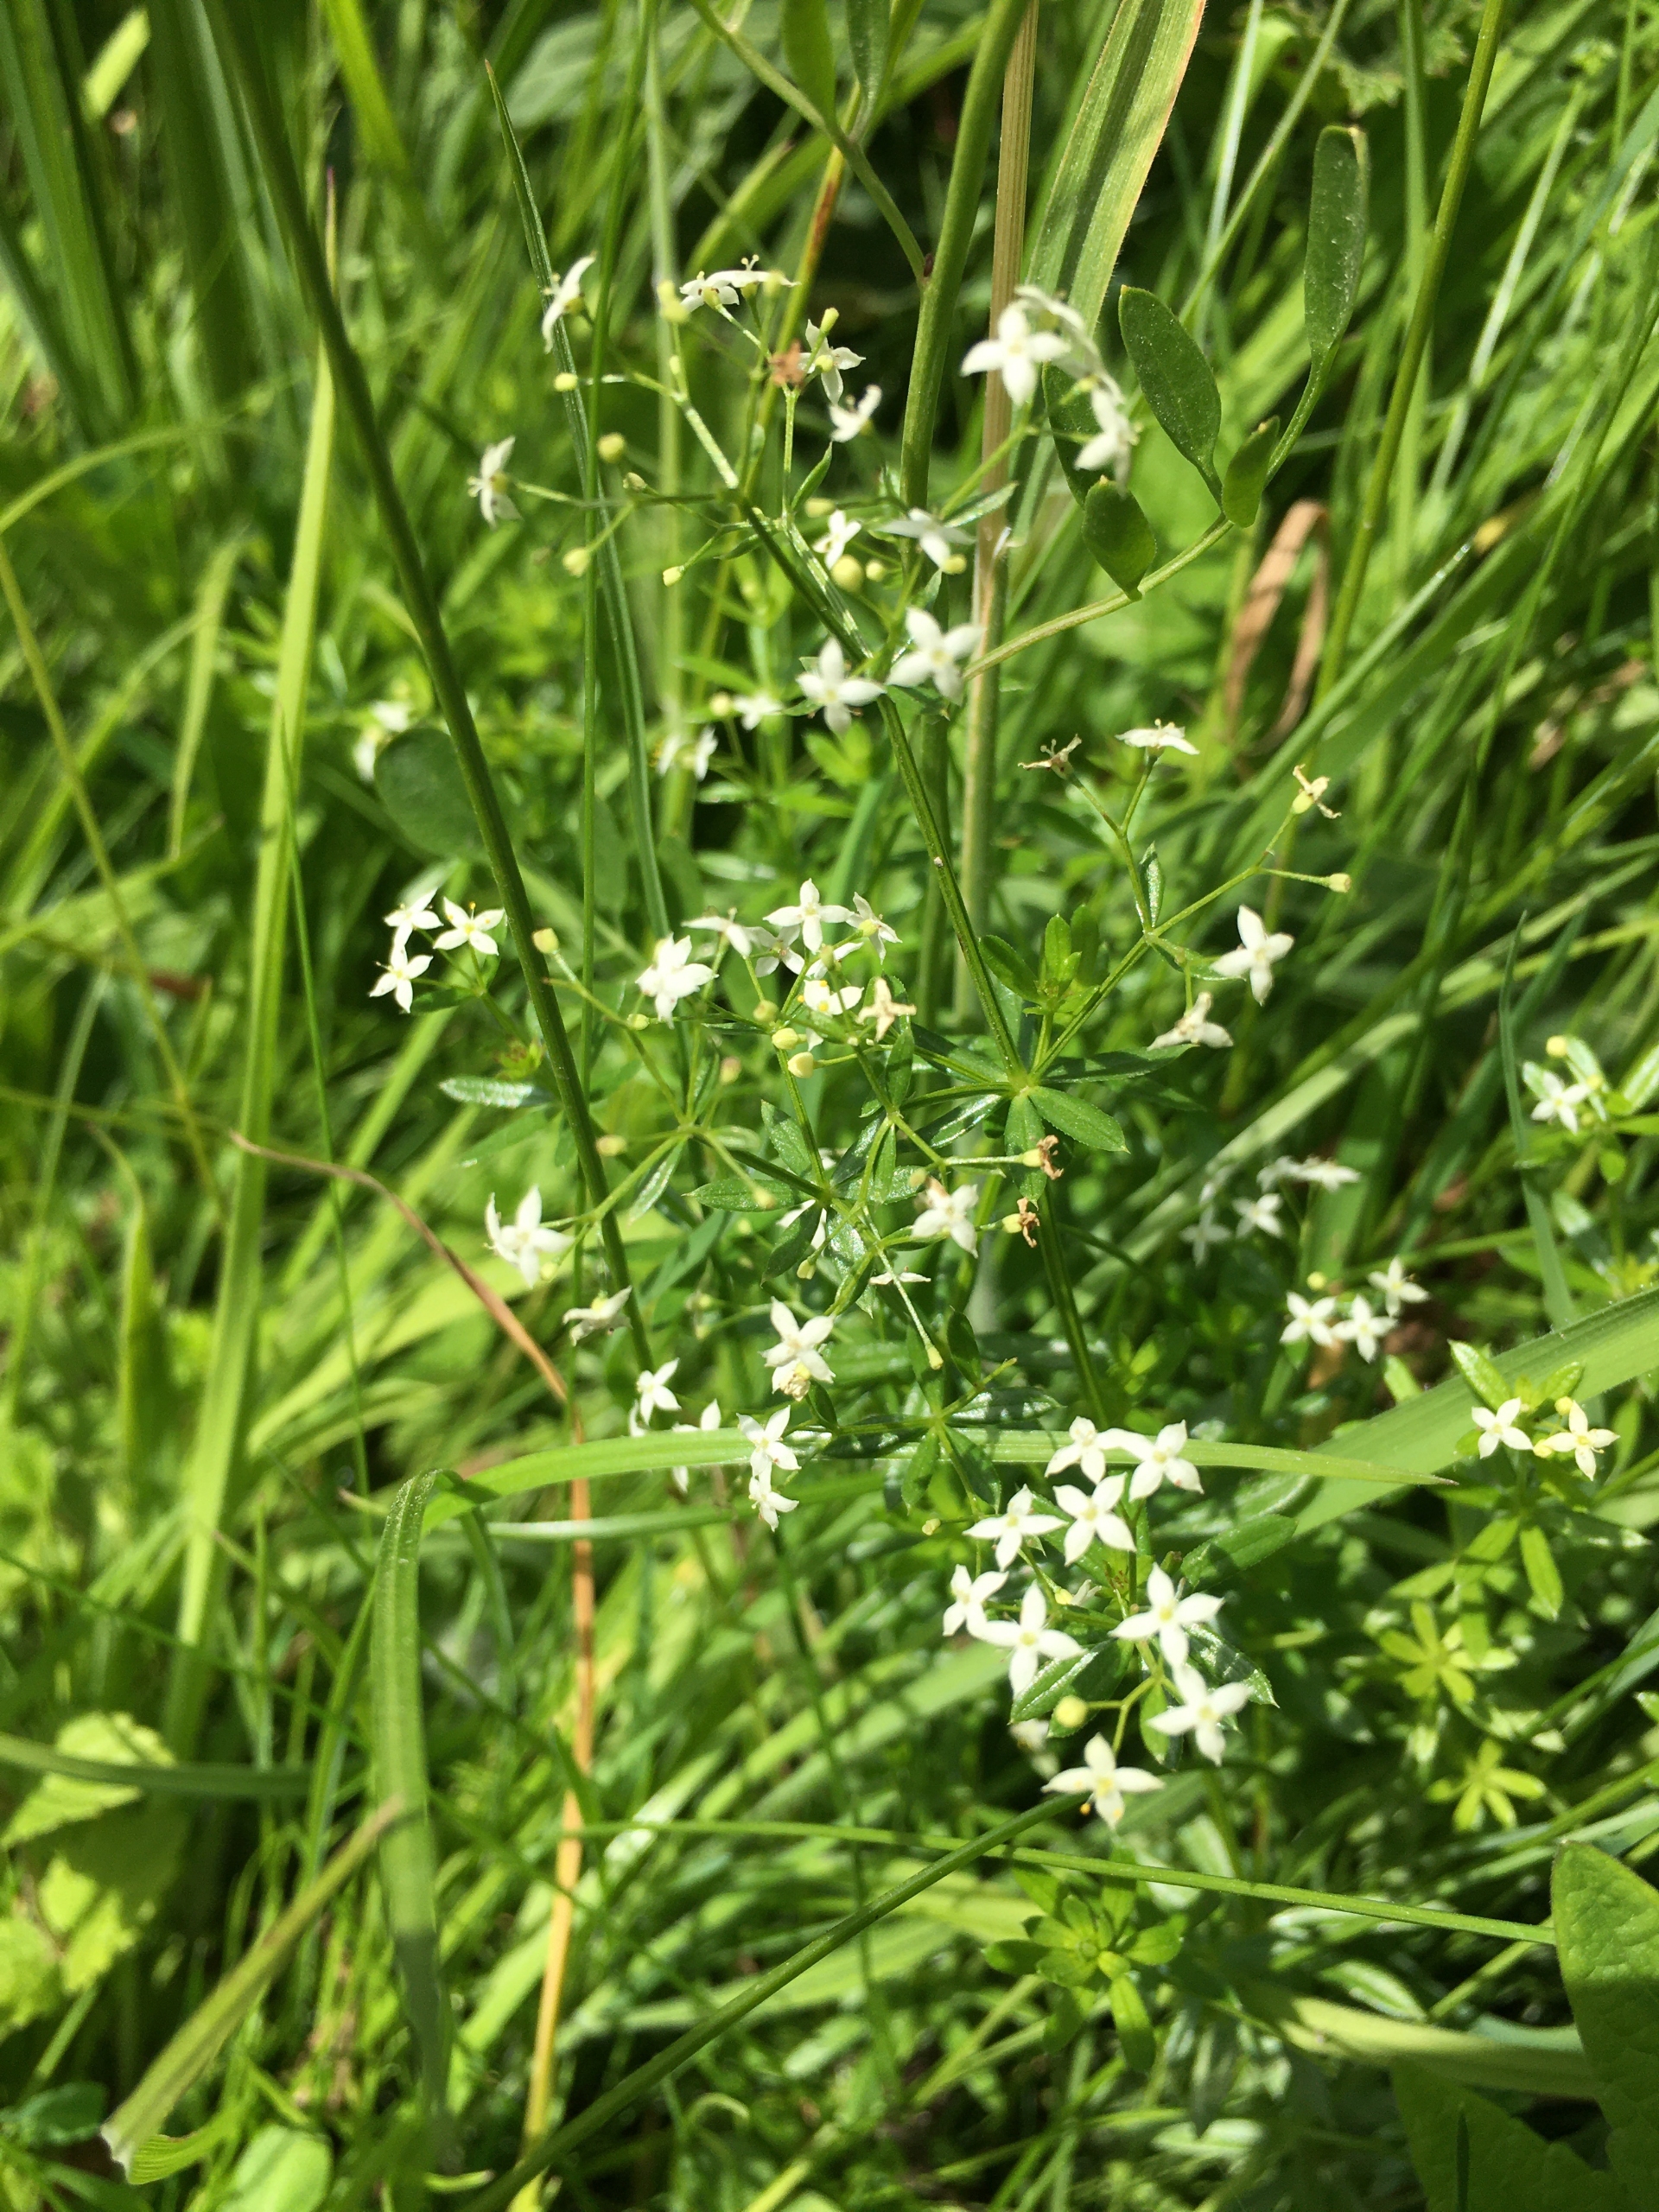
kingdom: Plantae
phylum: Tracheophyta
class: Magnoliopsida
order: Gentianales
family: Rubiaceae
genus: Galium
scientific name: Galium mollugo
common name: Hvid snerre
